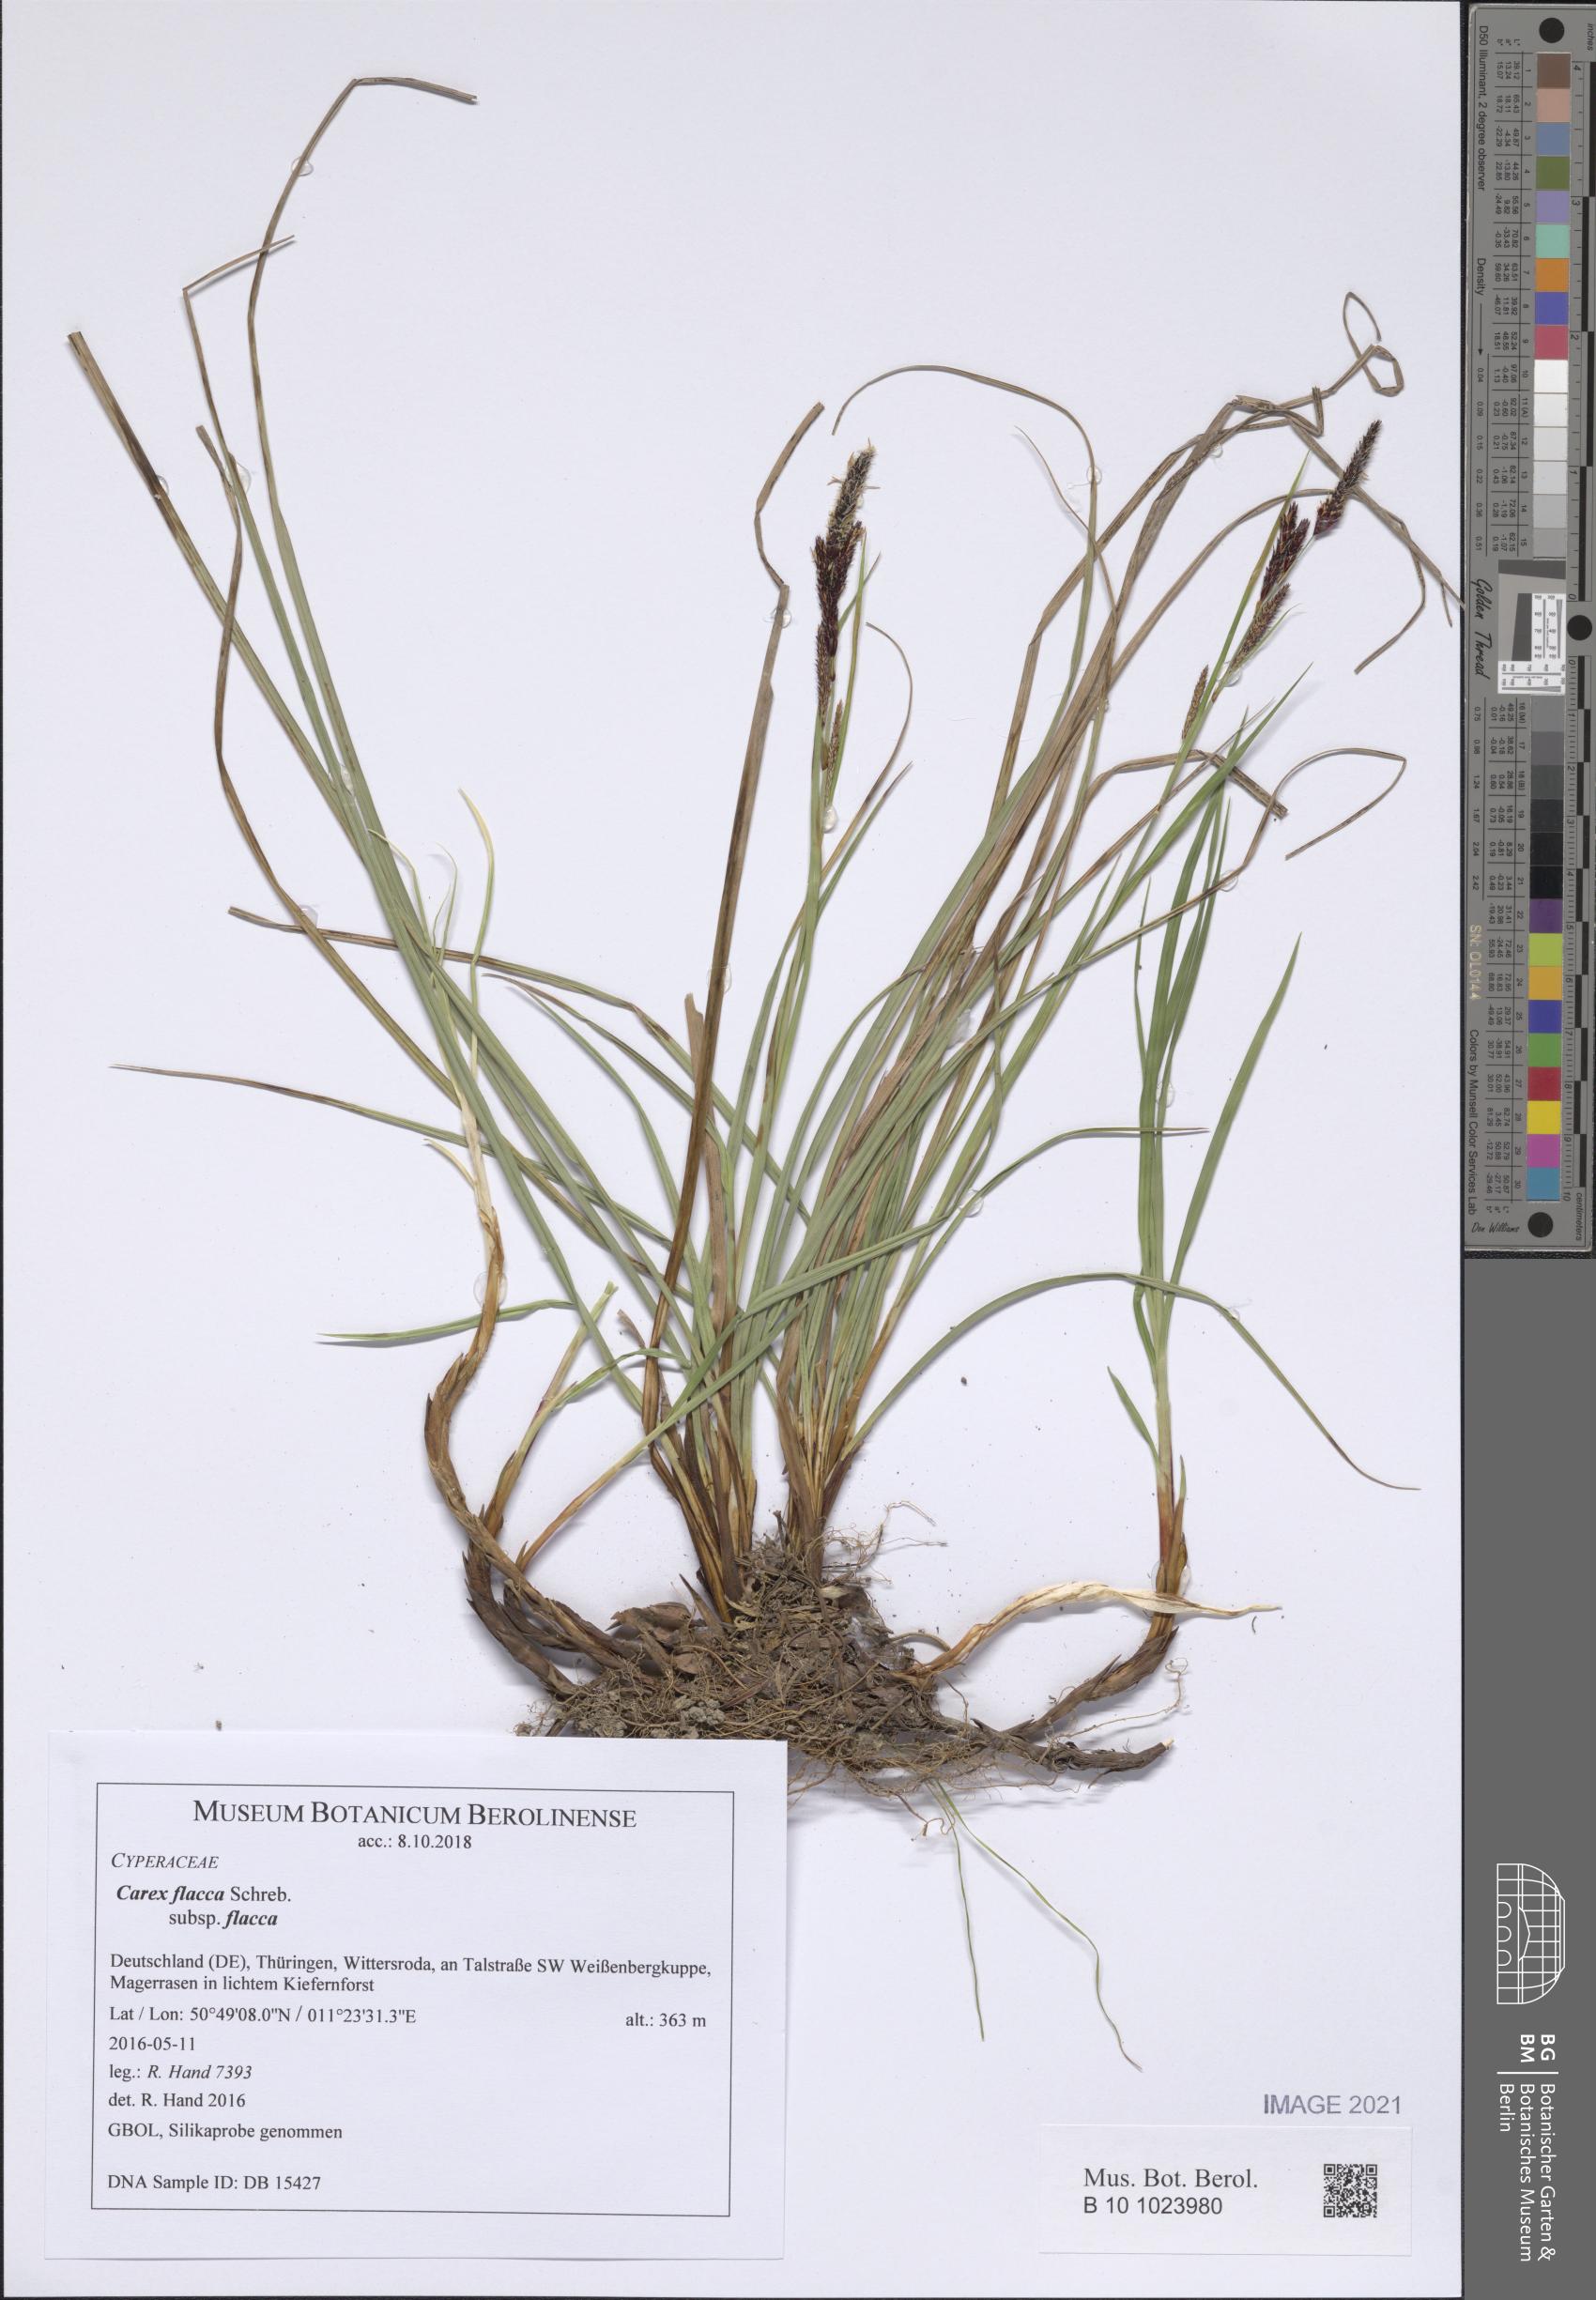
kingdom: Plantae
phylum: Tracheophyta
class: Liliopsida
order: Poales
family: Cyperaceae
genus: Carex
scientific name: Carex flacca
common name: Glaucous sedge
